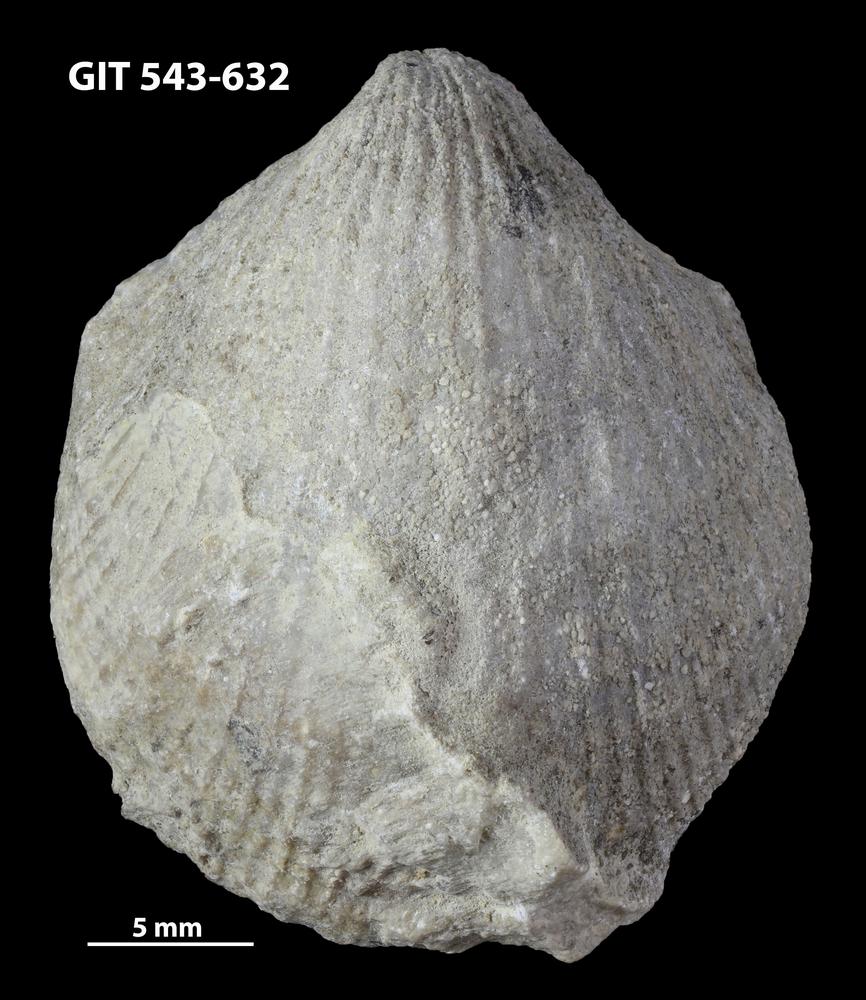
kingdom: Animalia
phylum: Brachiopoda
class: Rhynchonellata
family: Clitambonitidae
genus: Vellamo
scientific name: Vellamo Orthis verneuili
